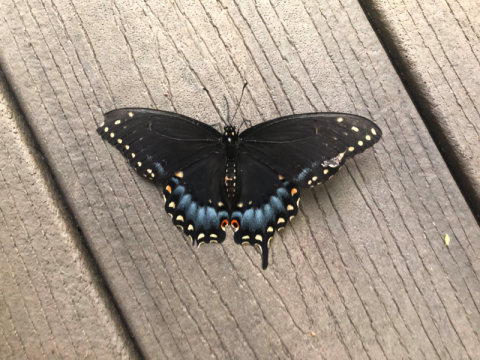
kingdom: Animalia
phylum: Arthropoda
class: Insecta
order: Lepidoptera
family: Papilionidae
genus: Papilio
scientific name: Papilio polyxenes
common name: Black Swallowtail
